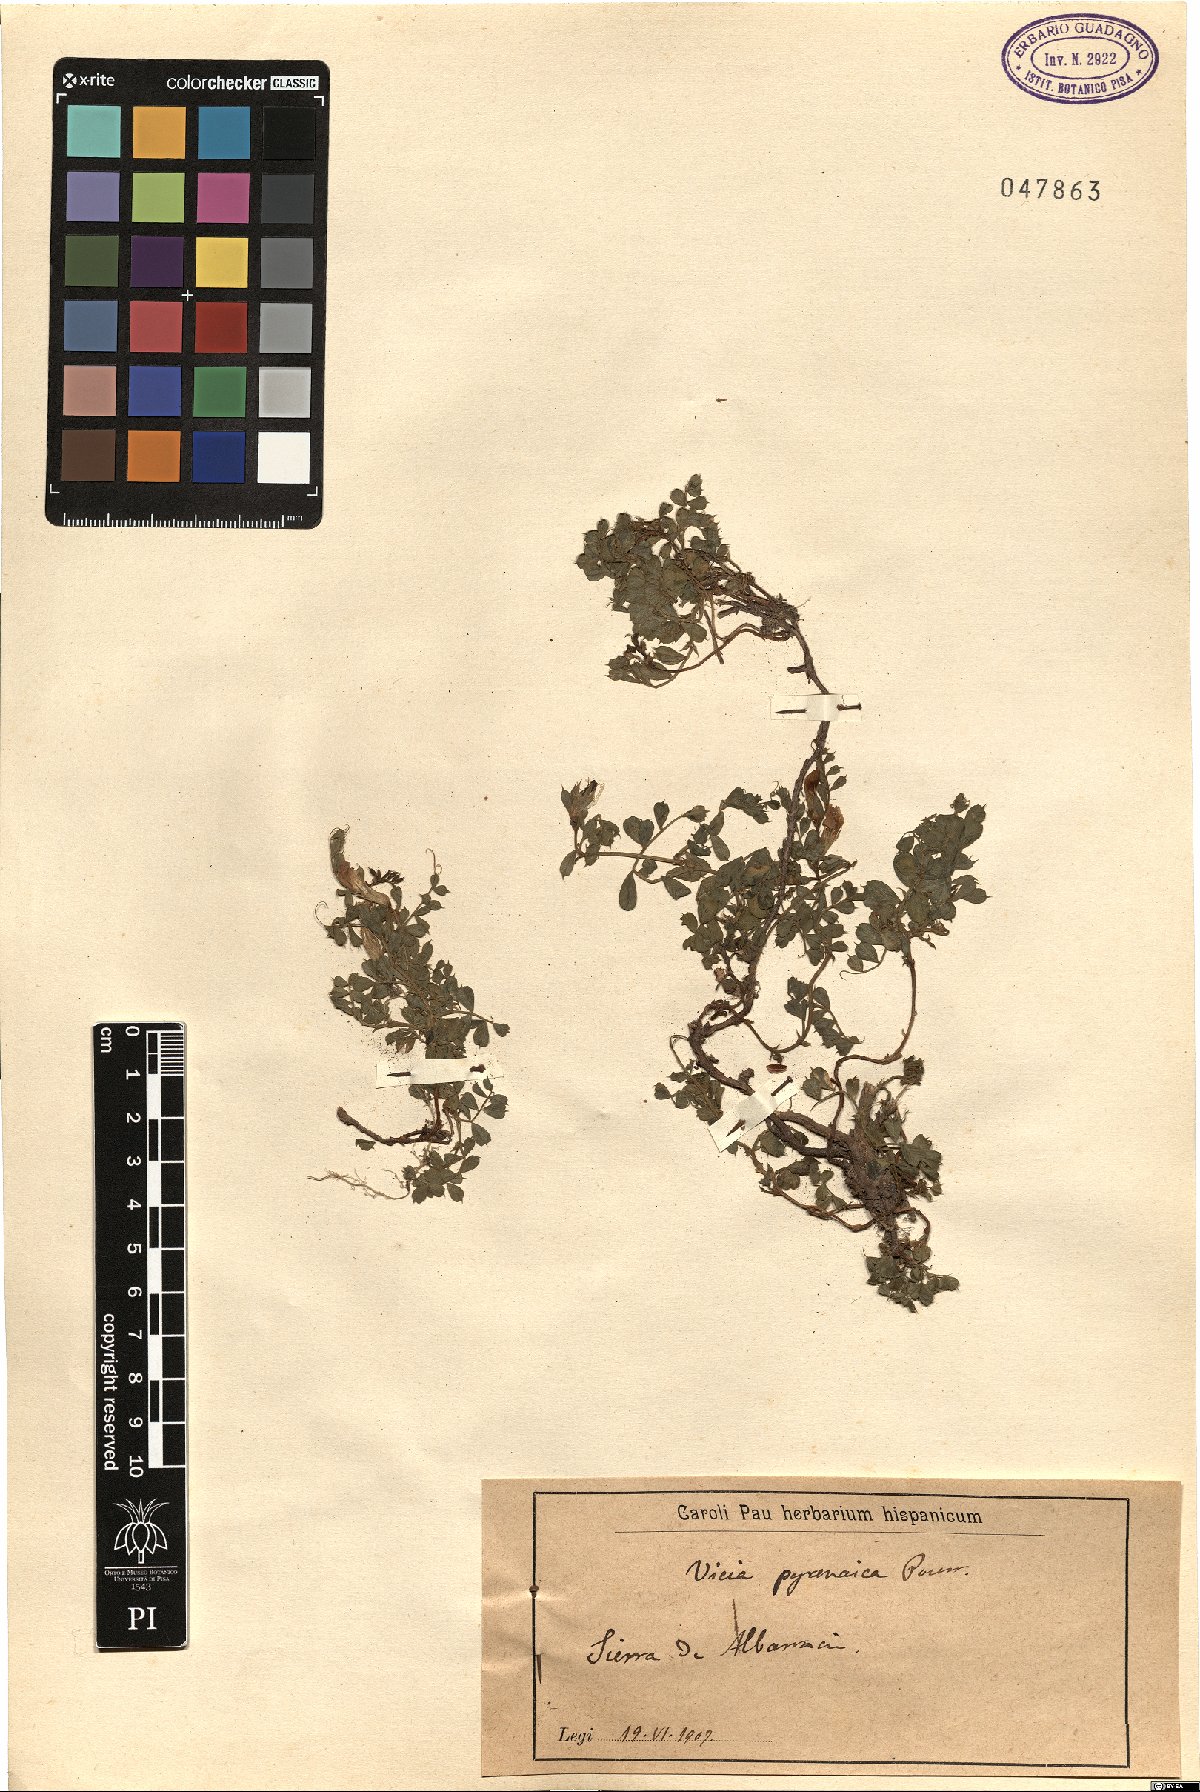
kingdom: Plantae
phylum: Tracheophyta
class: Magnoliopsida
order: Fabales
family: Fabaceae
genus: Vicia
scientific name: Vicia pyrenaica
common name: Pyrenean vetch
